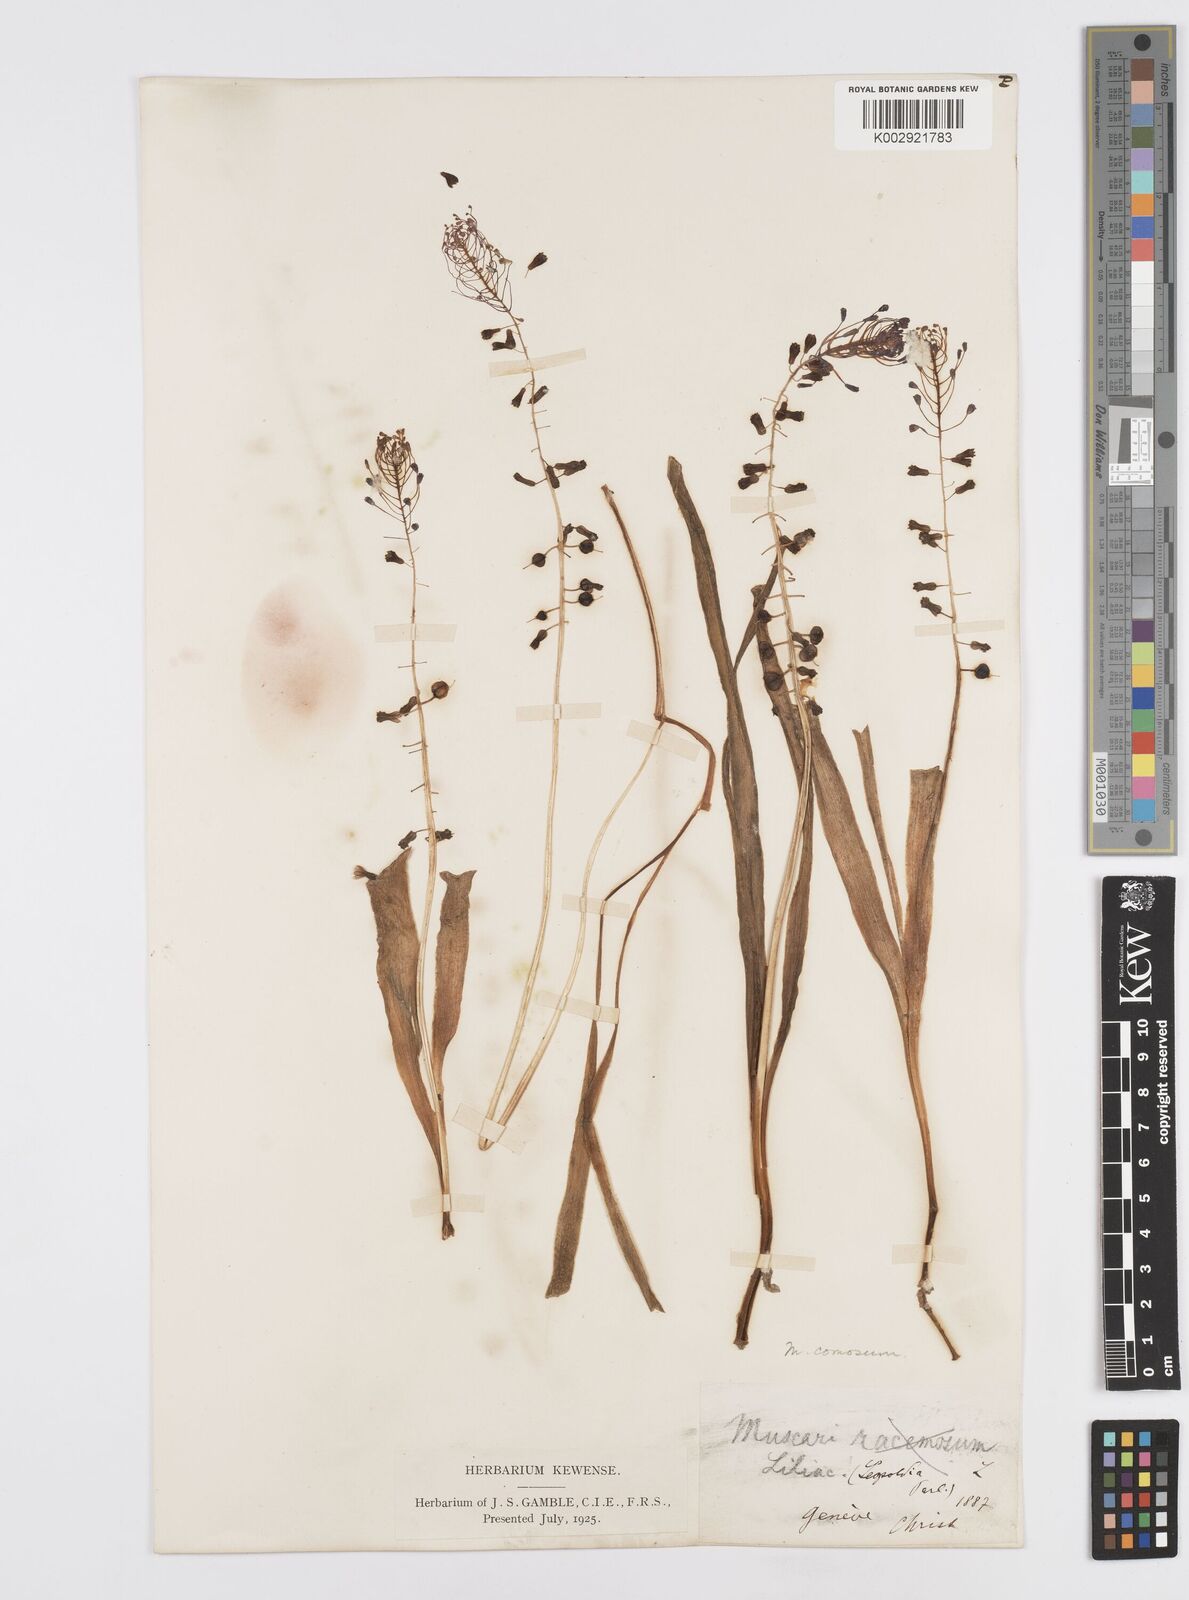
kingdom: Plantae
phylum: Tracheophyta
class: Liliopsida
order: Asparagales
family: Asparagaceae
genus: Muscari
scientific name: Muscari comosum
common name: Tassel hyacinth
